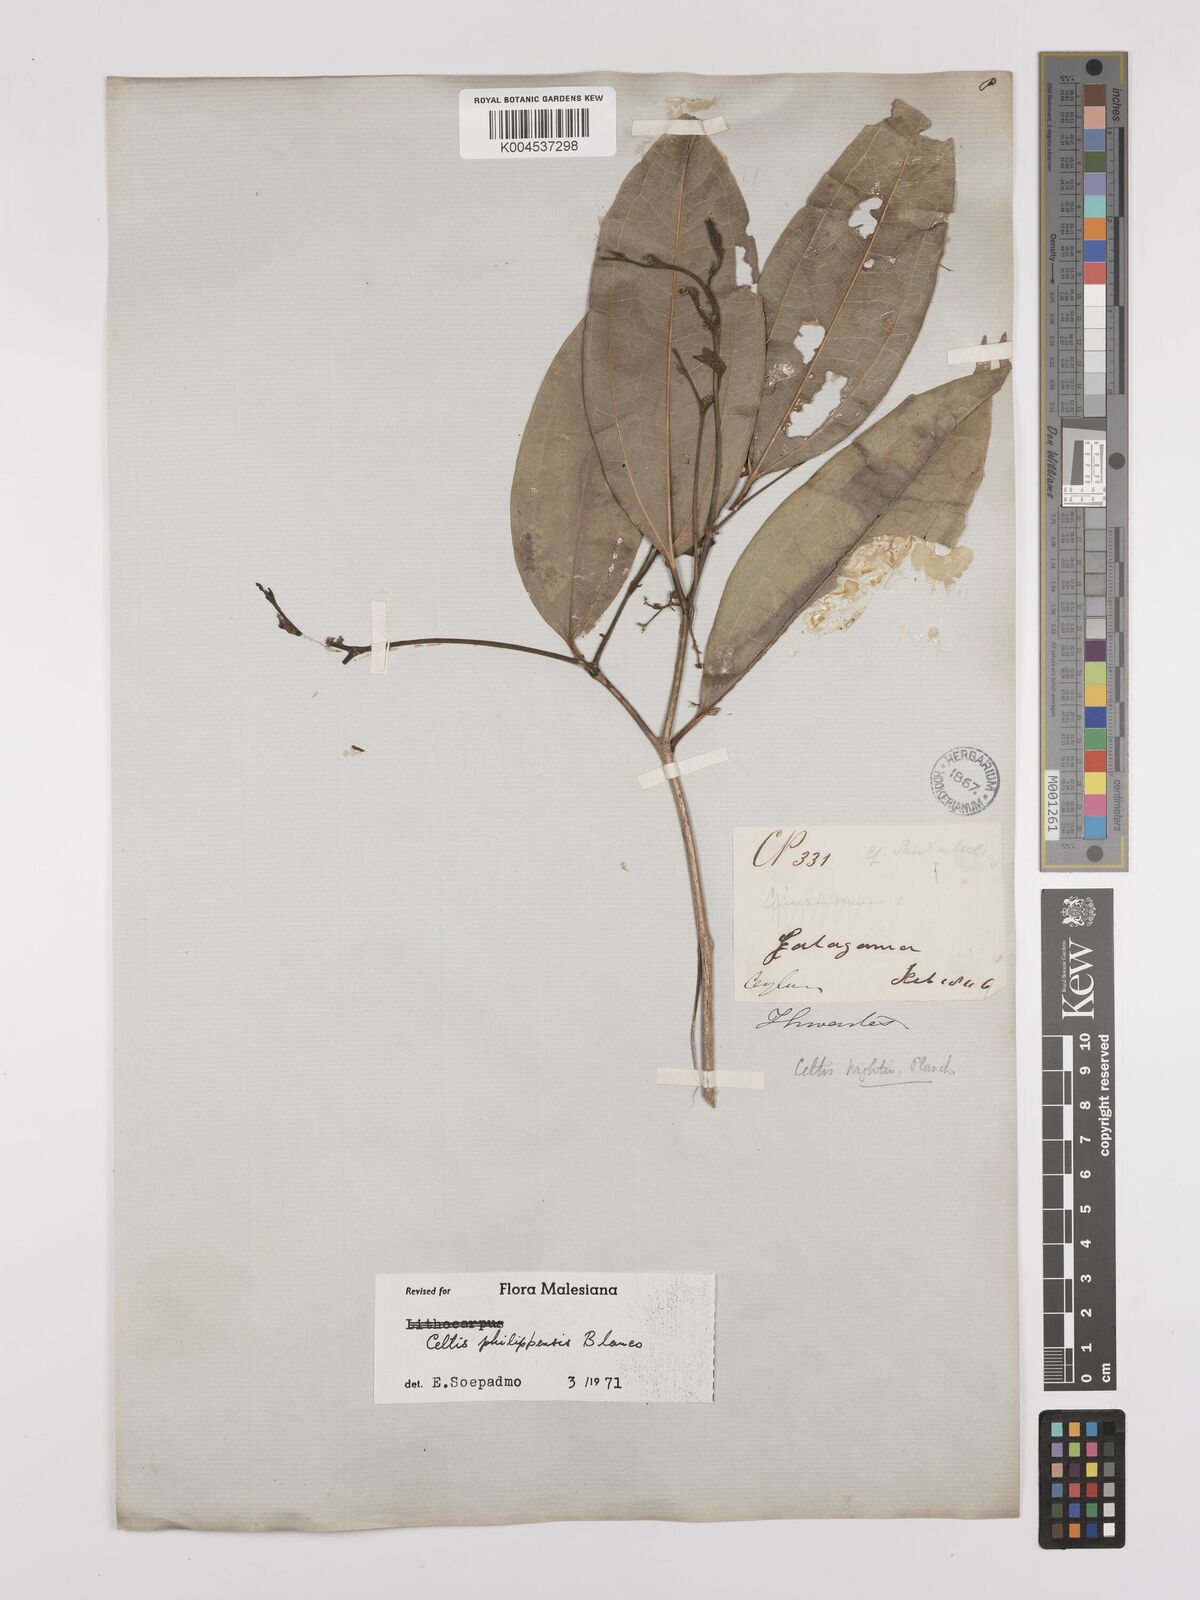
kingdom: Plantae
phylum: Tracheophyta
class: Magnoliopsida
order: Rosales
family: Cannabaceae
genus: Celtis
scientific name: Celtis philippensis
